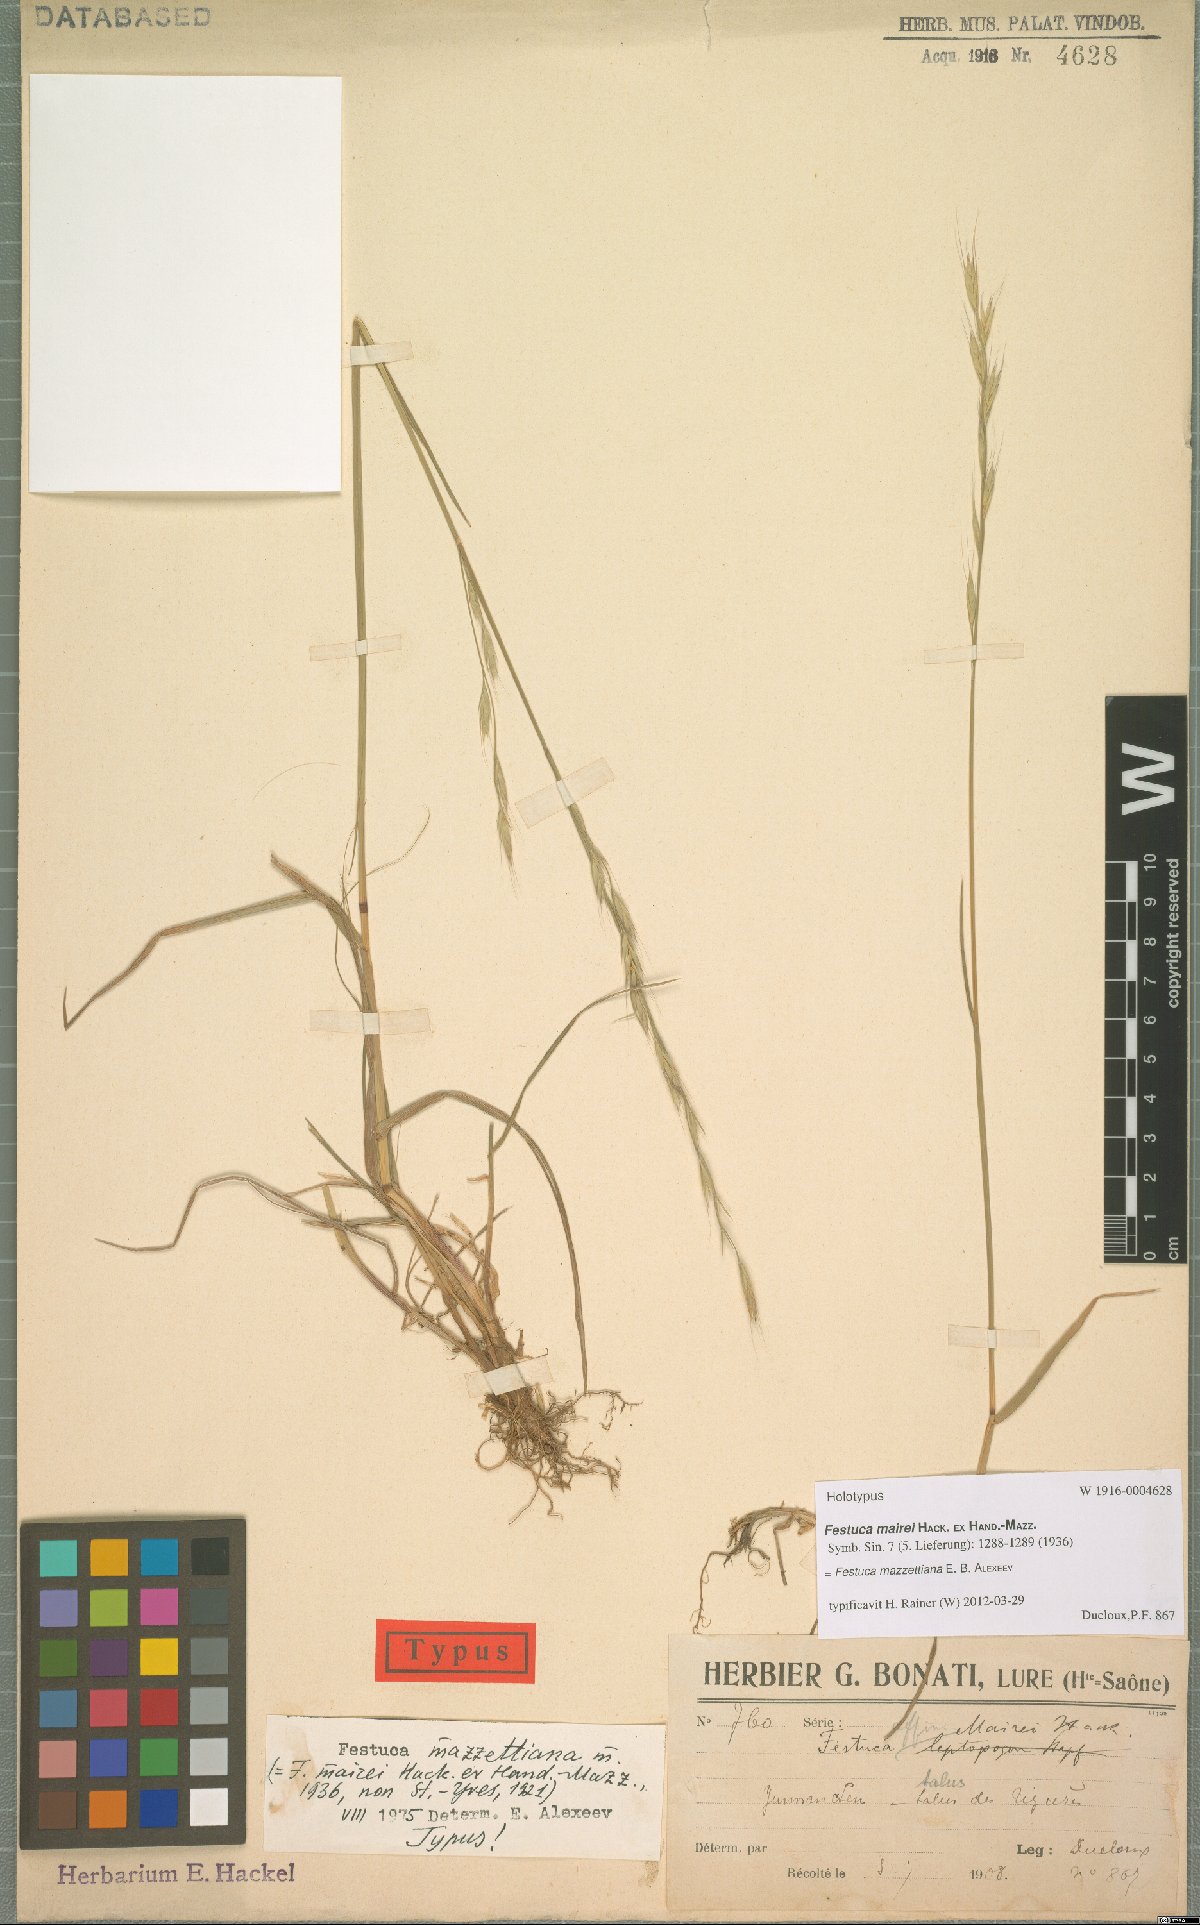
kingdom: Plantae
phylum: Tracheophyta
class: Liliopsida
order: Poales
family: Poaceae
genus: Lolium
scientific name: Lolium mazzettianum
